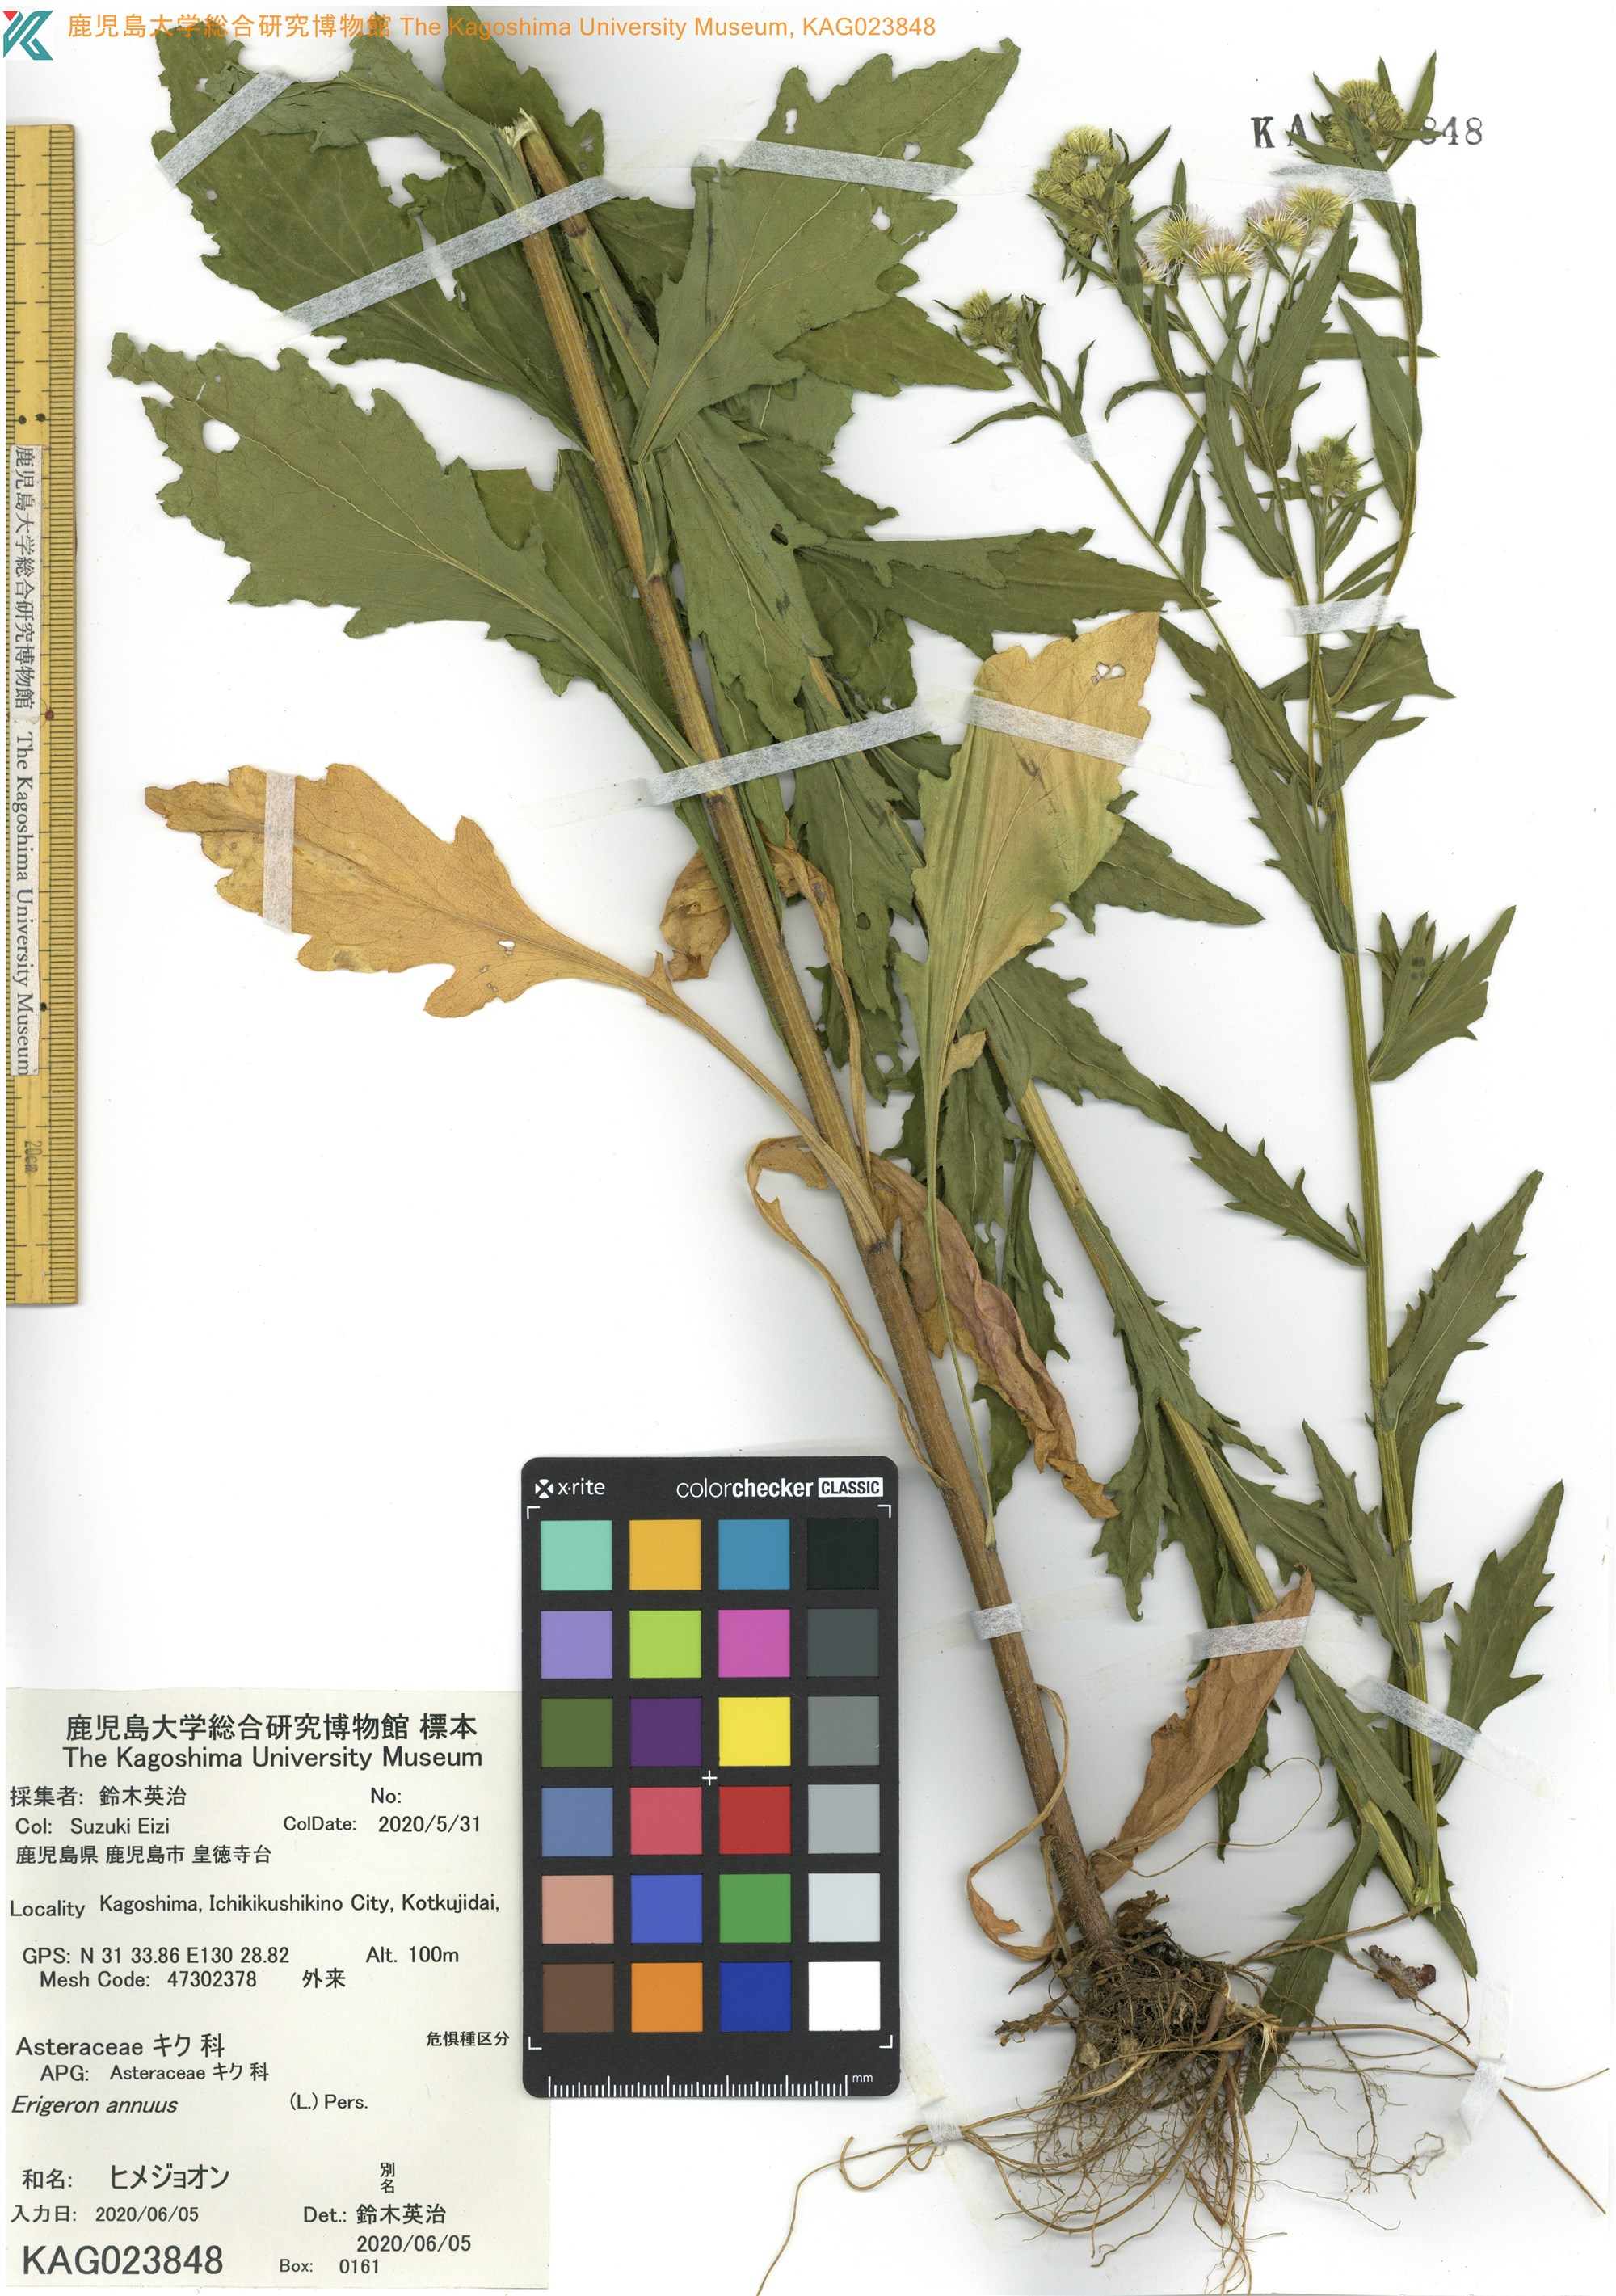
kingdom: Plantae
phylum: Tracheophyta
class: Magnoliopsida
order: Asterales
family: Asteraceae
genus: Erigeron
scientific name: Erigeron annuus
